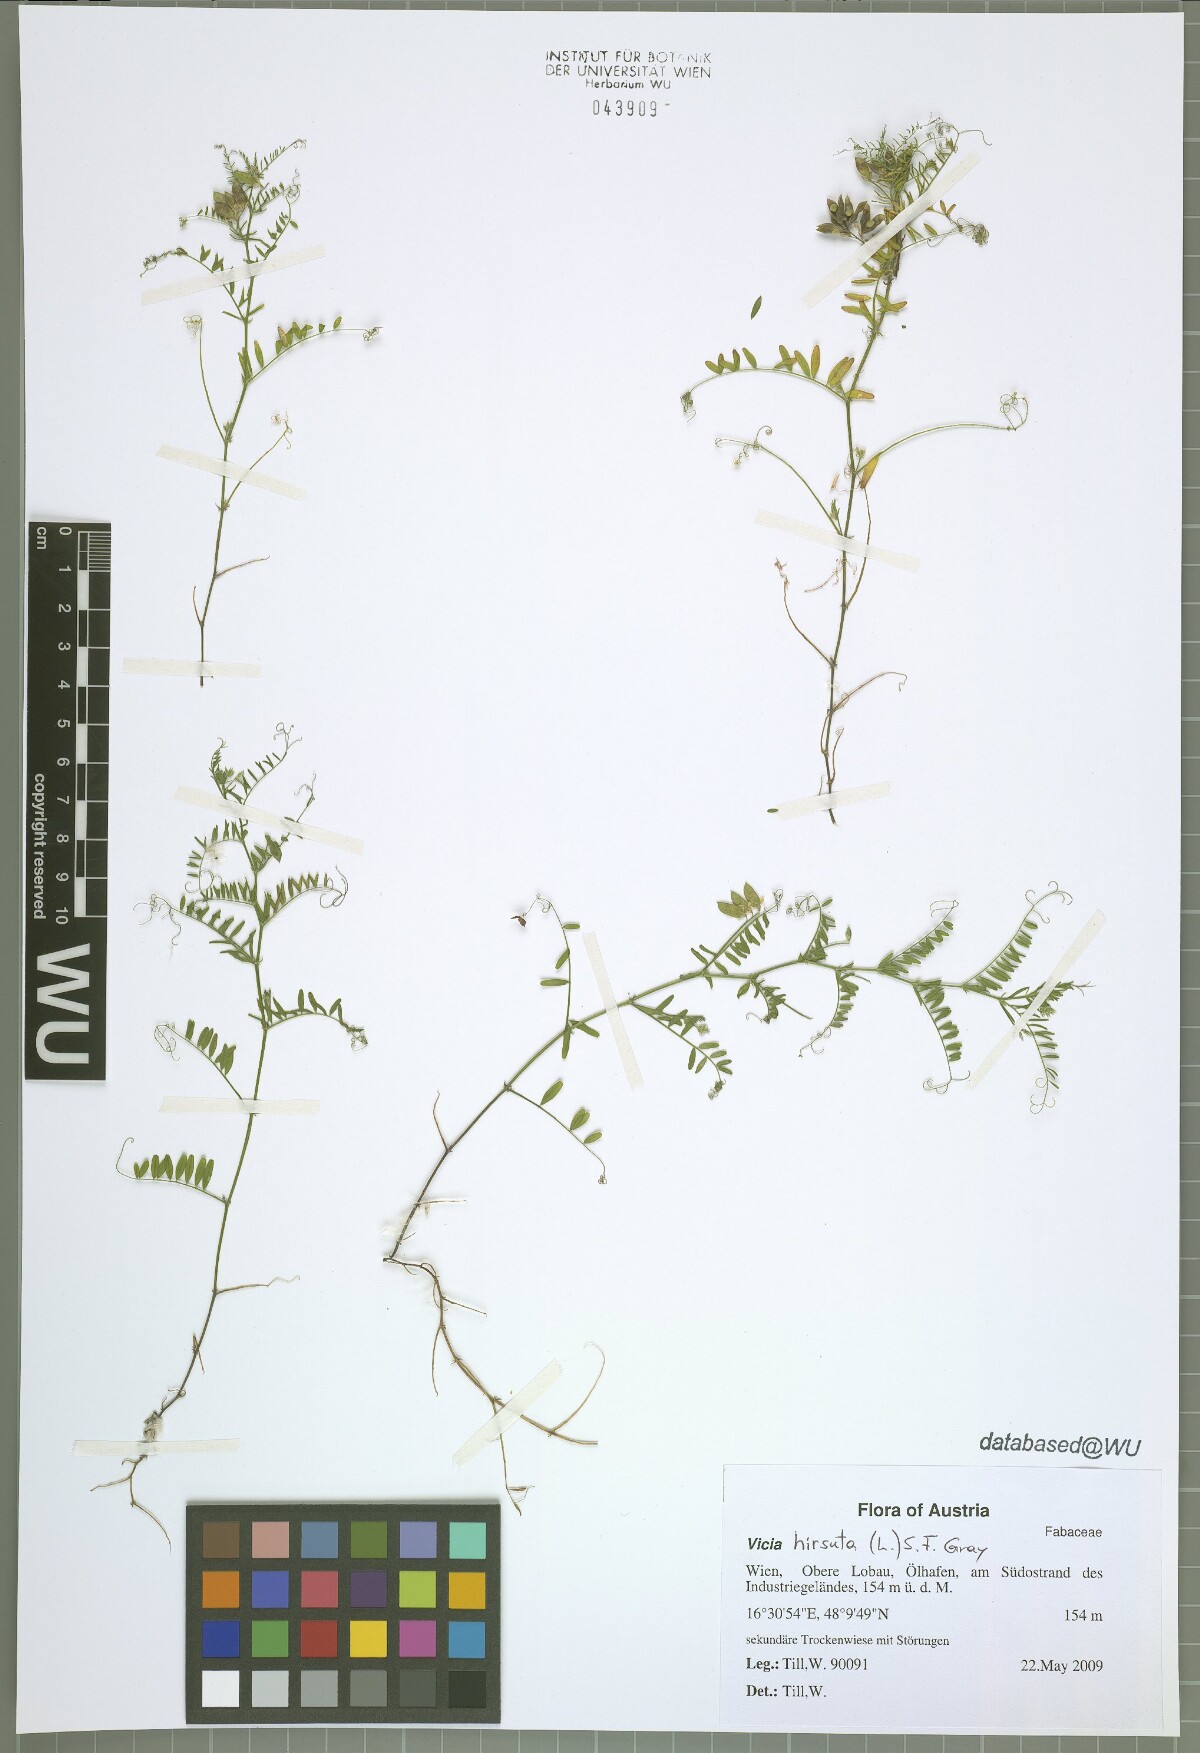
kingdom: Plantae
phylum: Tracheophyta
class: Magnoliopsida
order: Fabales
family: Fabaceae
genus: Vicia
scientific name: Vicia hirsuta
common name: Tiny vetch
